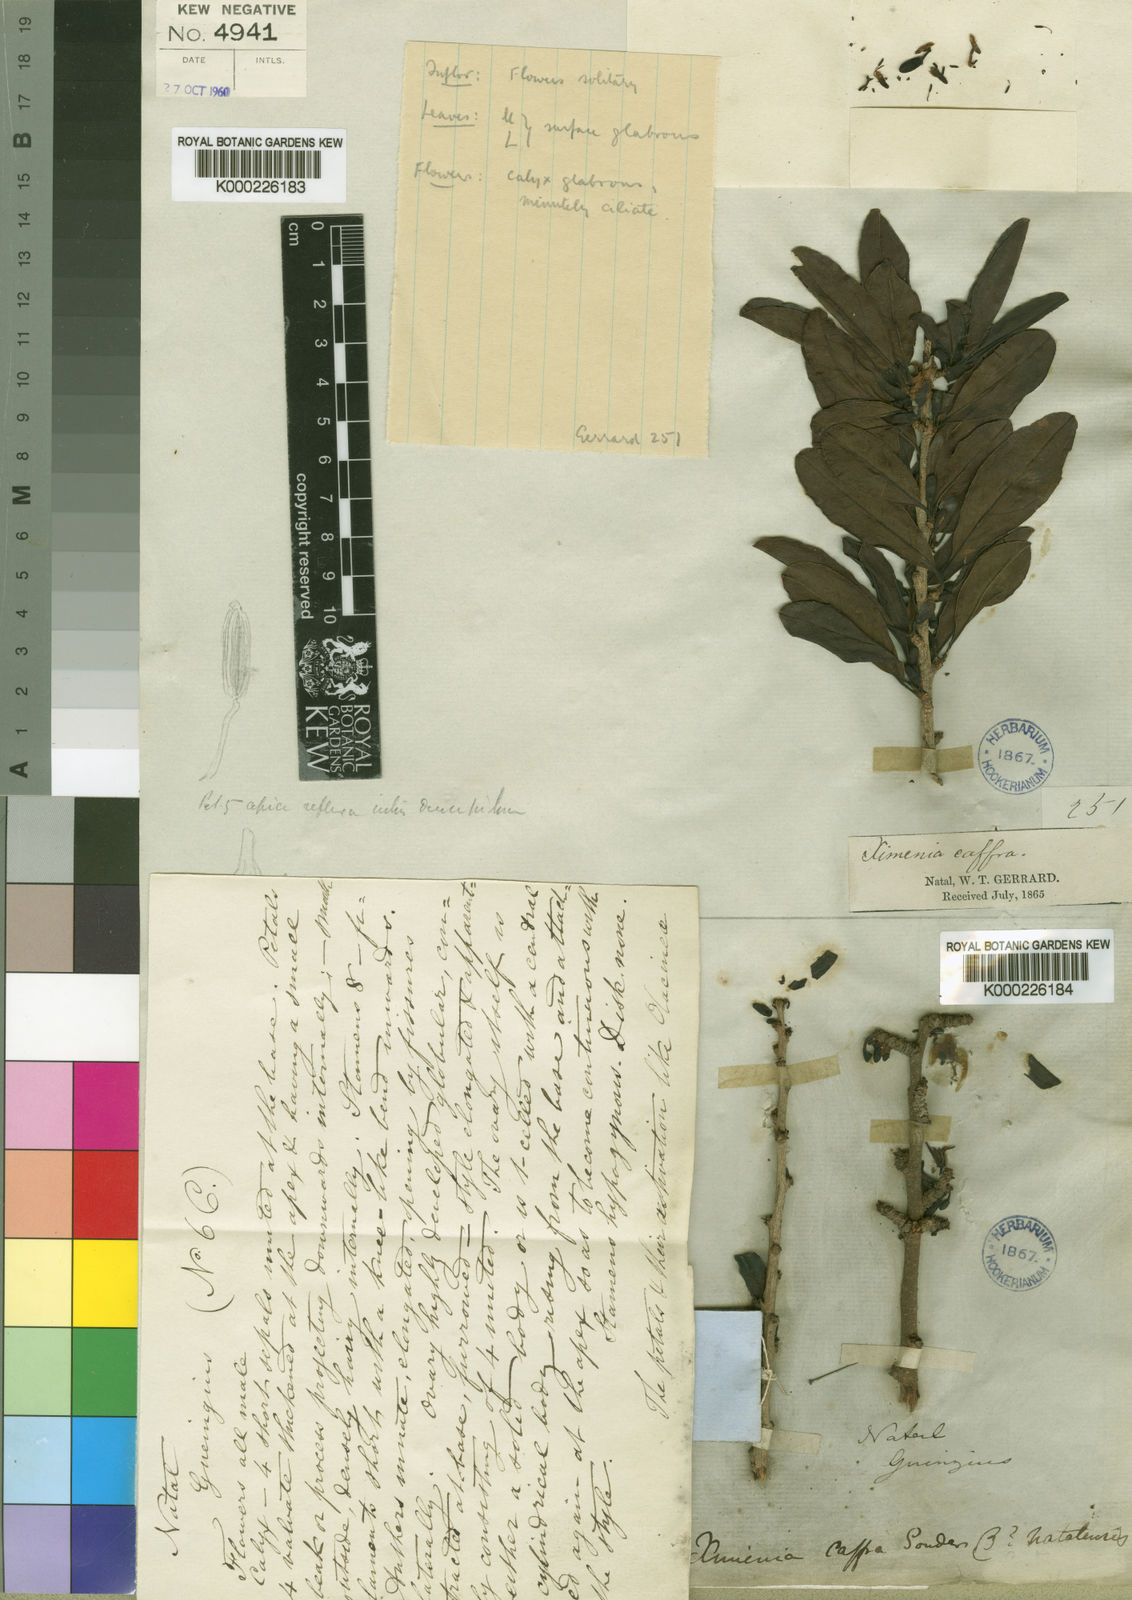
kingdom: Plantae
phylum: Tracheophyta
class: Magnoliopsida
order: Santalales
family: Ximeniaceae
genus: Ximenia
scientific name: Ximenia caffra
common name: Large sourplum
